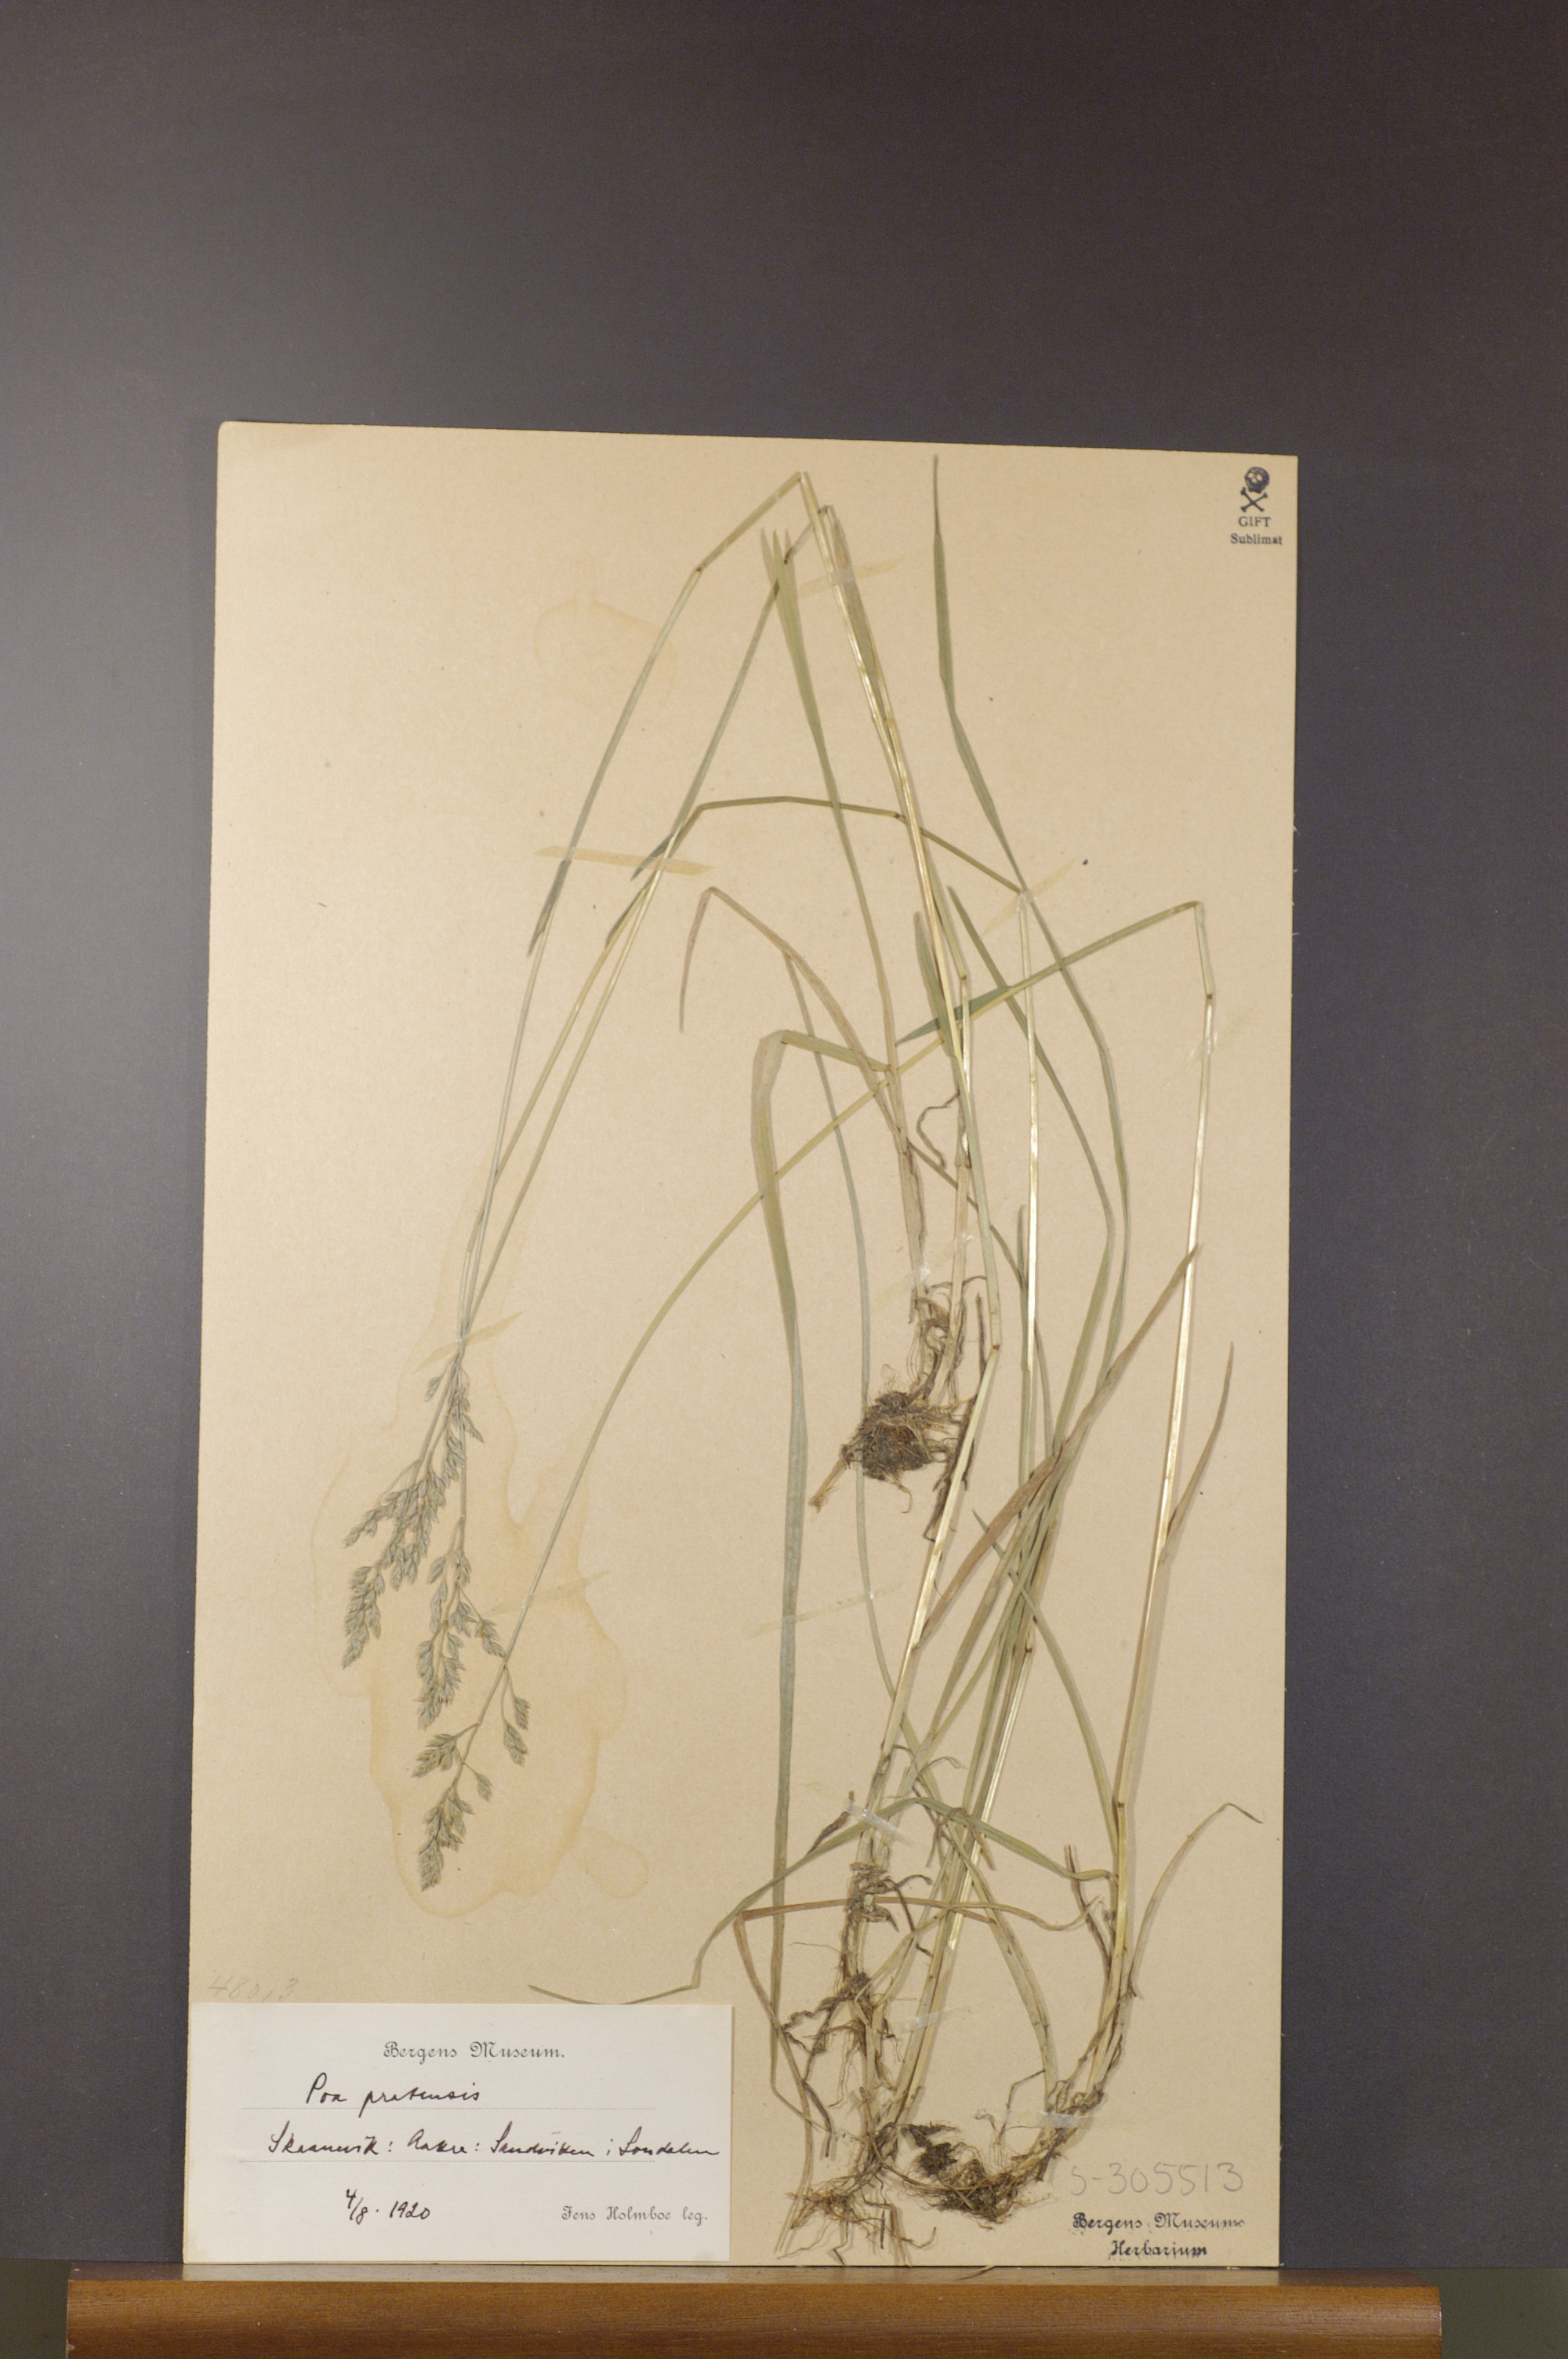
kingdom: Plantae
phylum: Tracheophyta
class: Liliopsida
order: Poales
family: Poaceae
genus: Poa
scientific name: Poa pratensis
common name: Kentucky bluegrass
